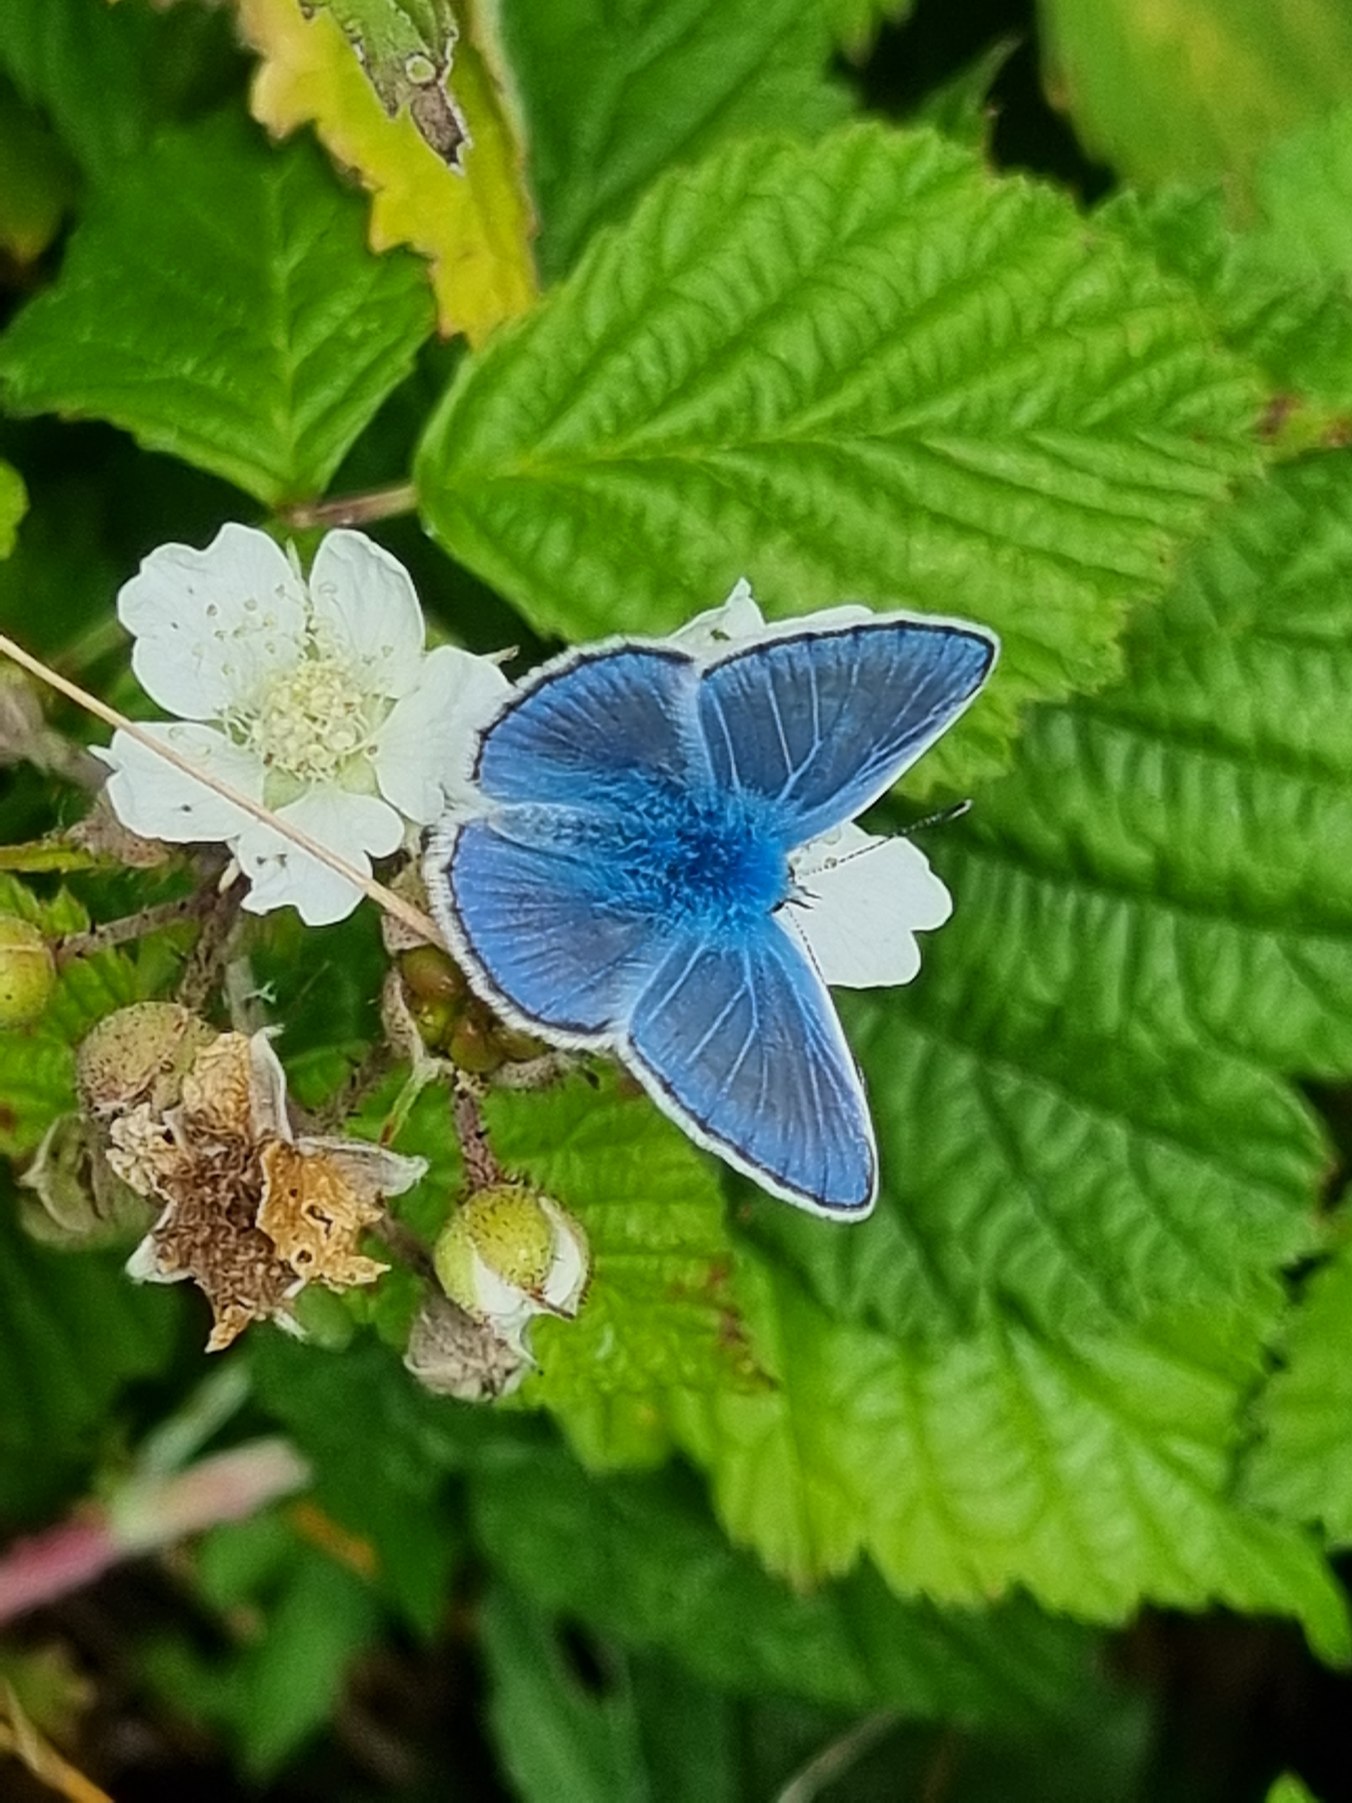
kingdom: Animalia
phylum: Arthropoda
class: Insecta
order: Lepidoptera
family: Lycaenidae
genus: Polyommatus
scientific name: Polyommatus icarus
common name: Almindelig blåfugl
